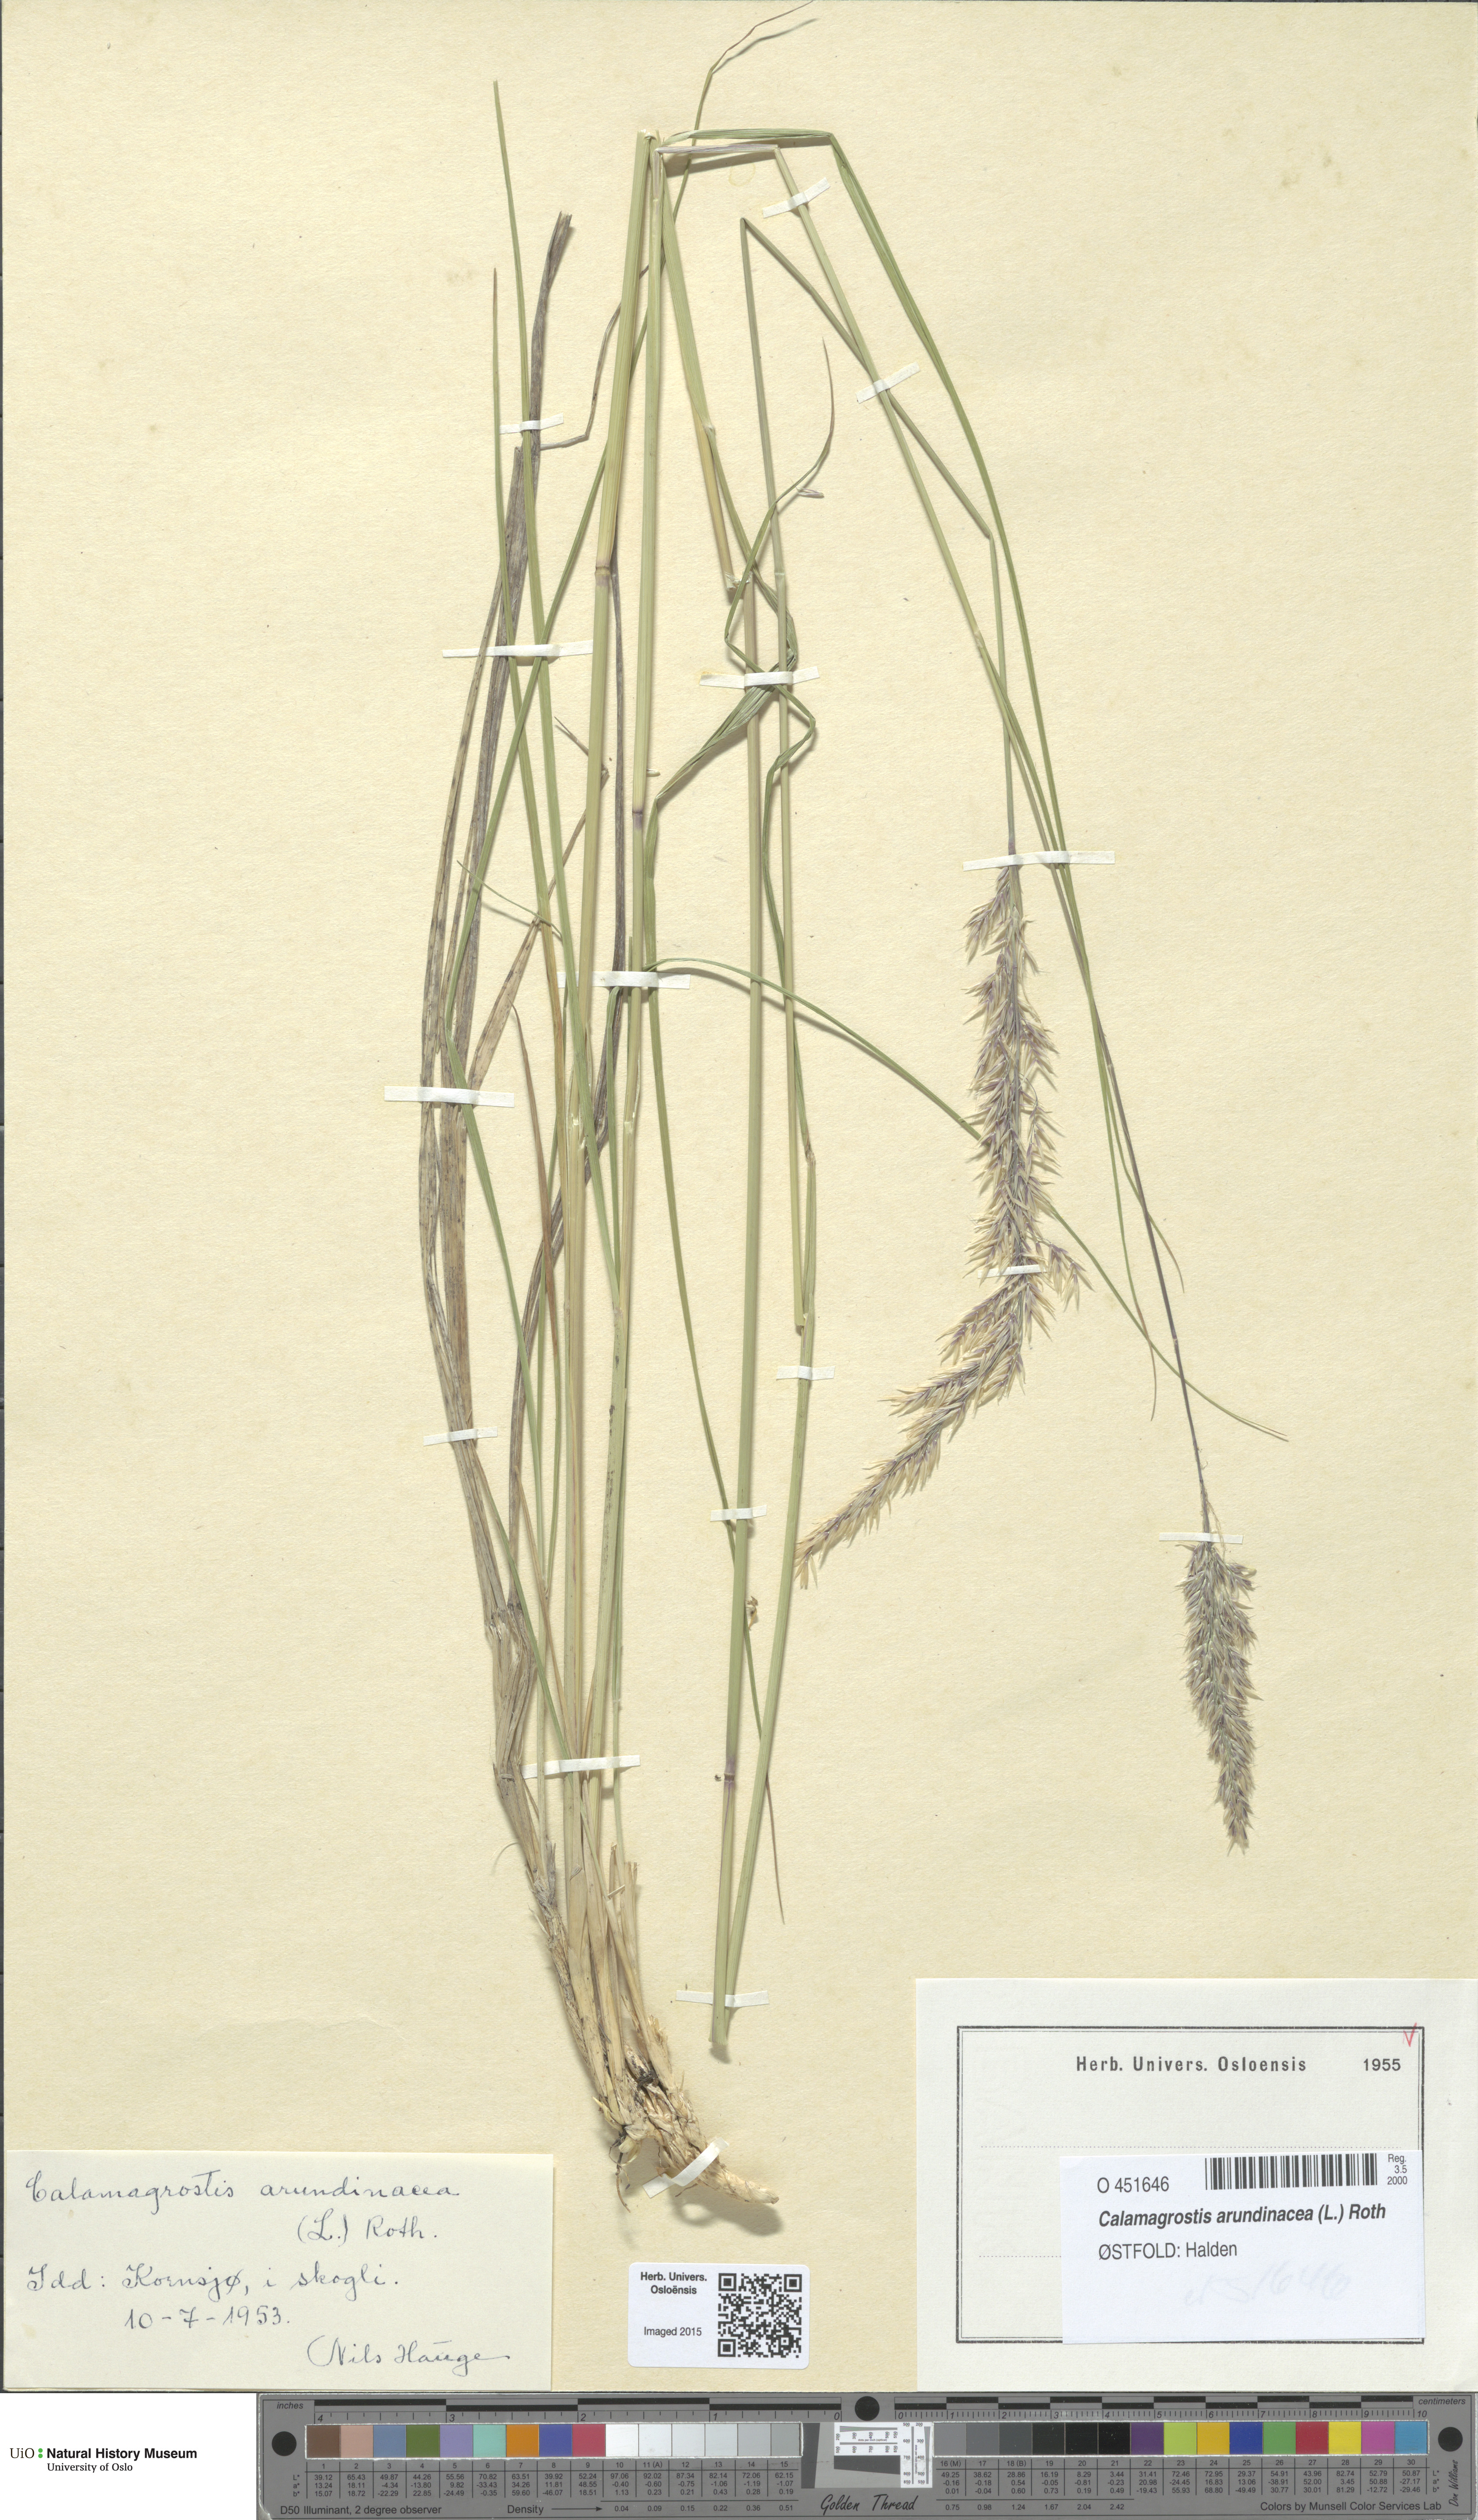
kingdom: Plantae
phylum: Tracheophyta
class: Liliopsida
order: Poales
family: Poaceae
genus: Calamagrostis
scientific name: Calamagrostis arundinacea
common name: Metskastik
